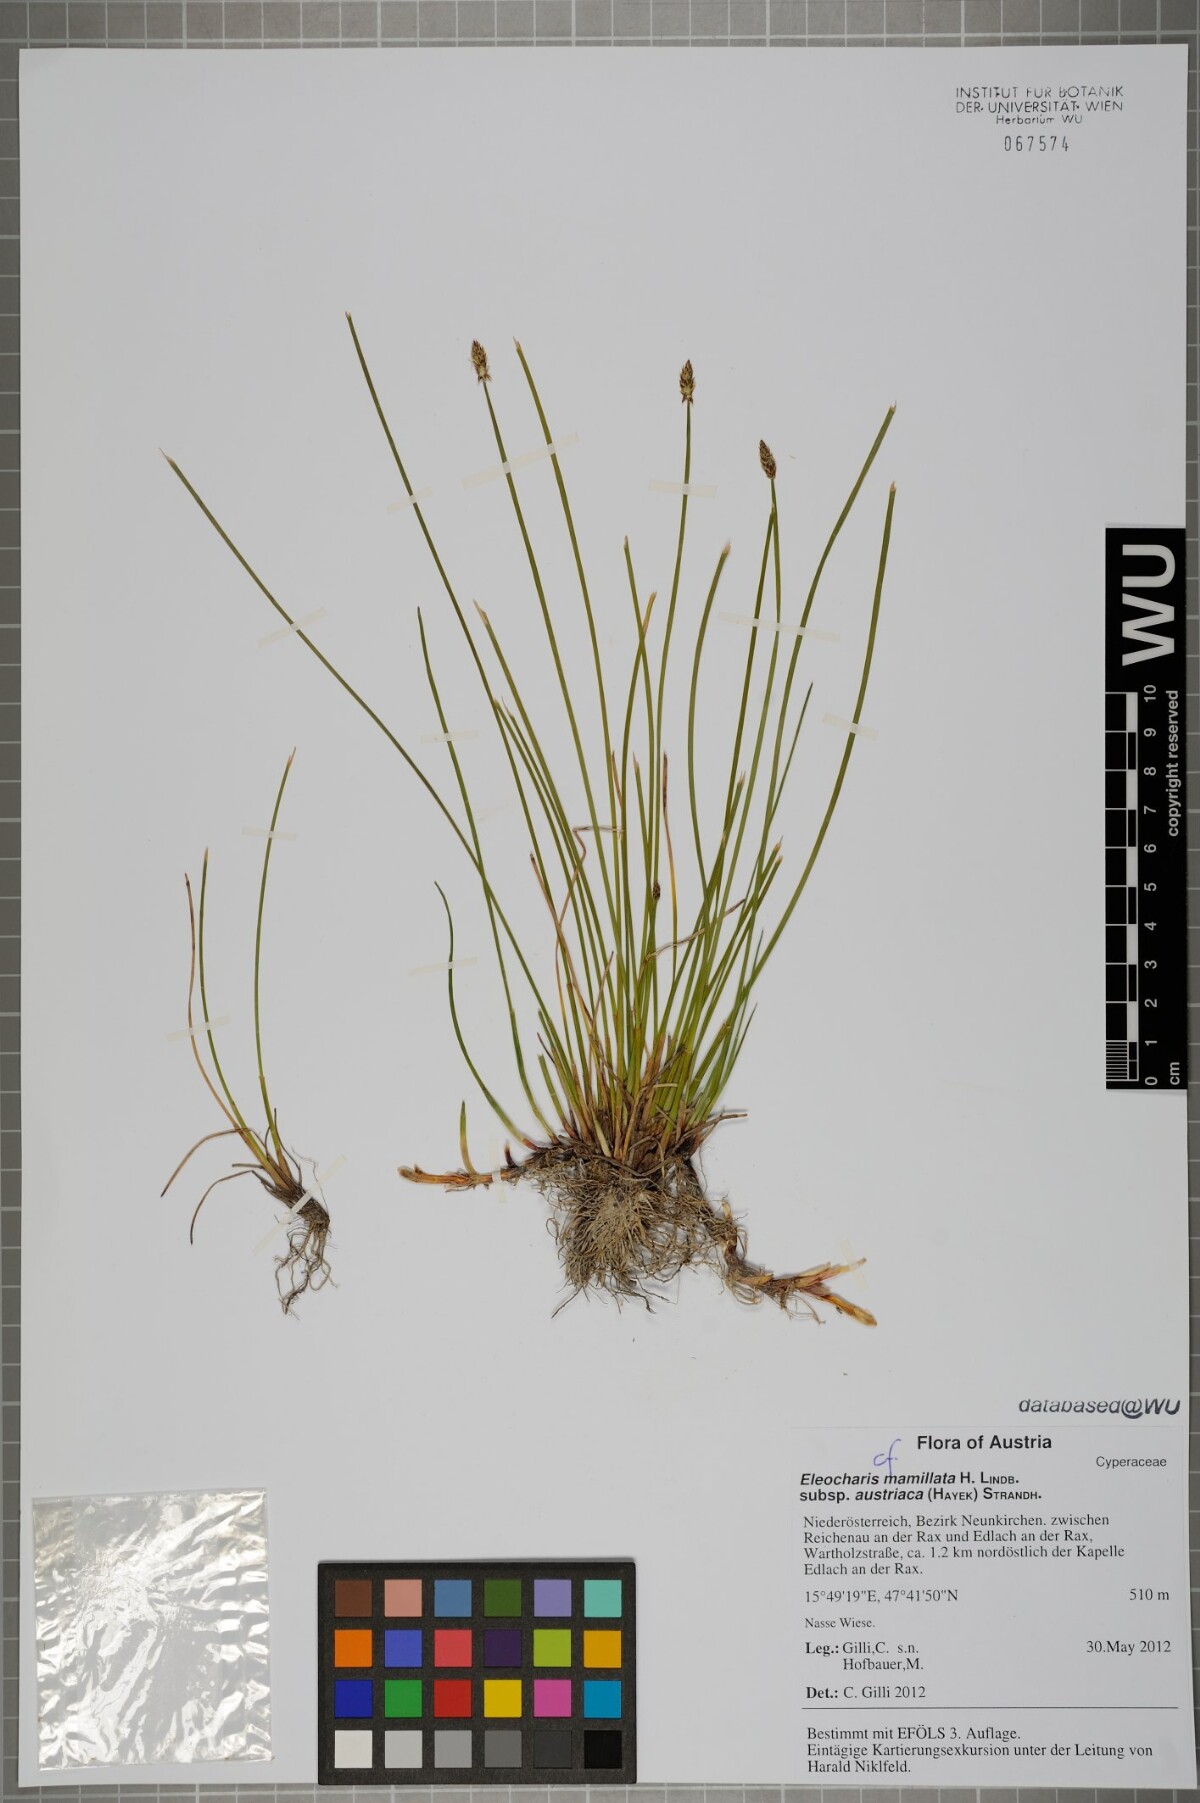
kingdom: Plantae
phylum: Tracheophyta
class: Liliopsida
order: Poales
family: Cyperaceae
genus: Eleocharis
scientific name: Eleocharis mamillata
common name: Northern spike-rush
